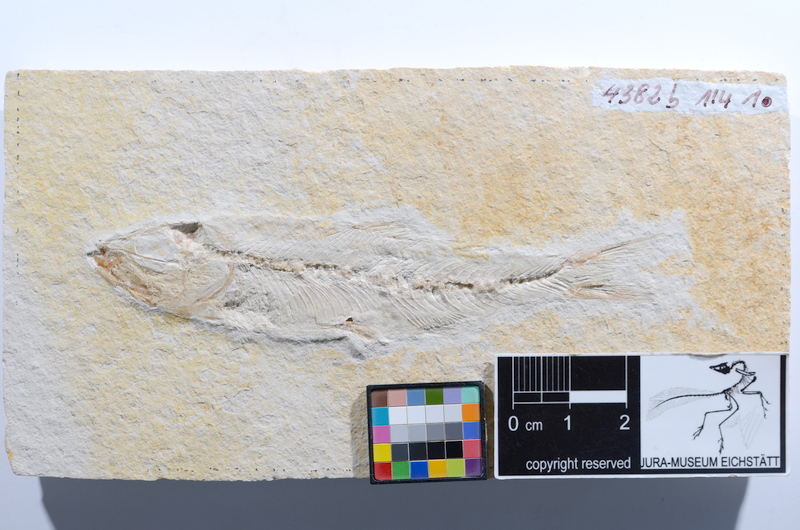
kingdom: Animalia
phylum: Chordata
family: Ascalaboidae
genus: Ascalabos
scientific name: Ascalabos voithii
